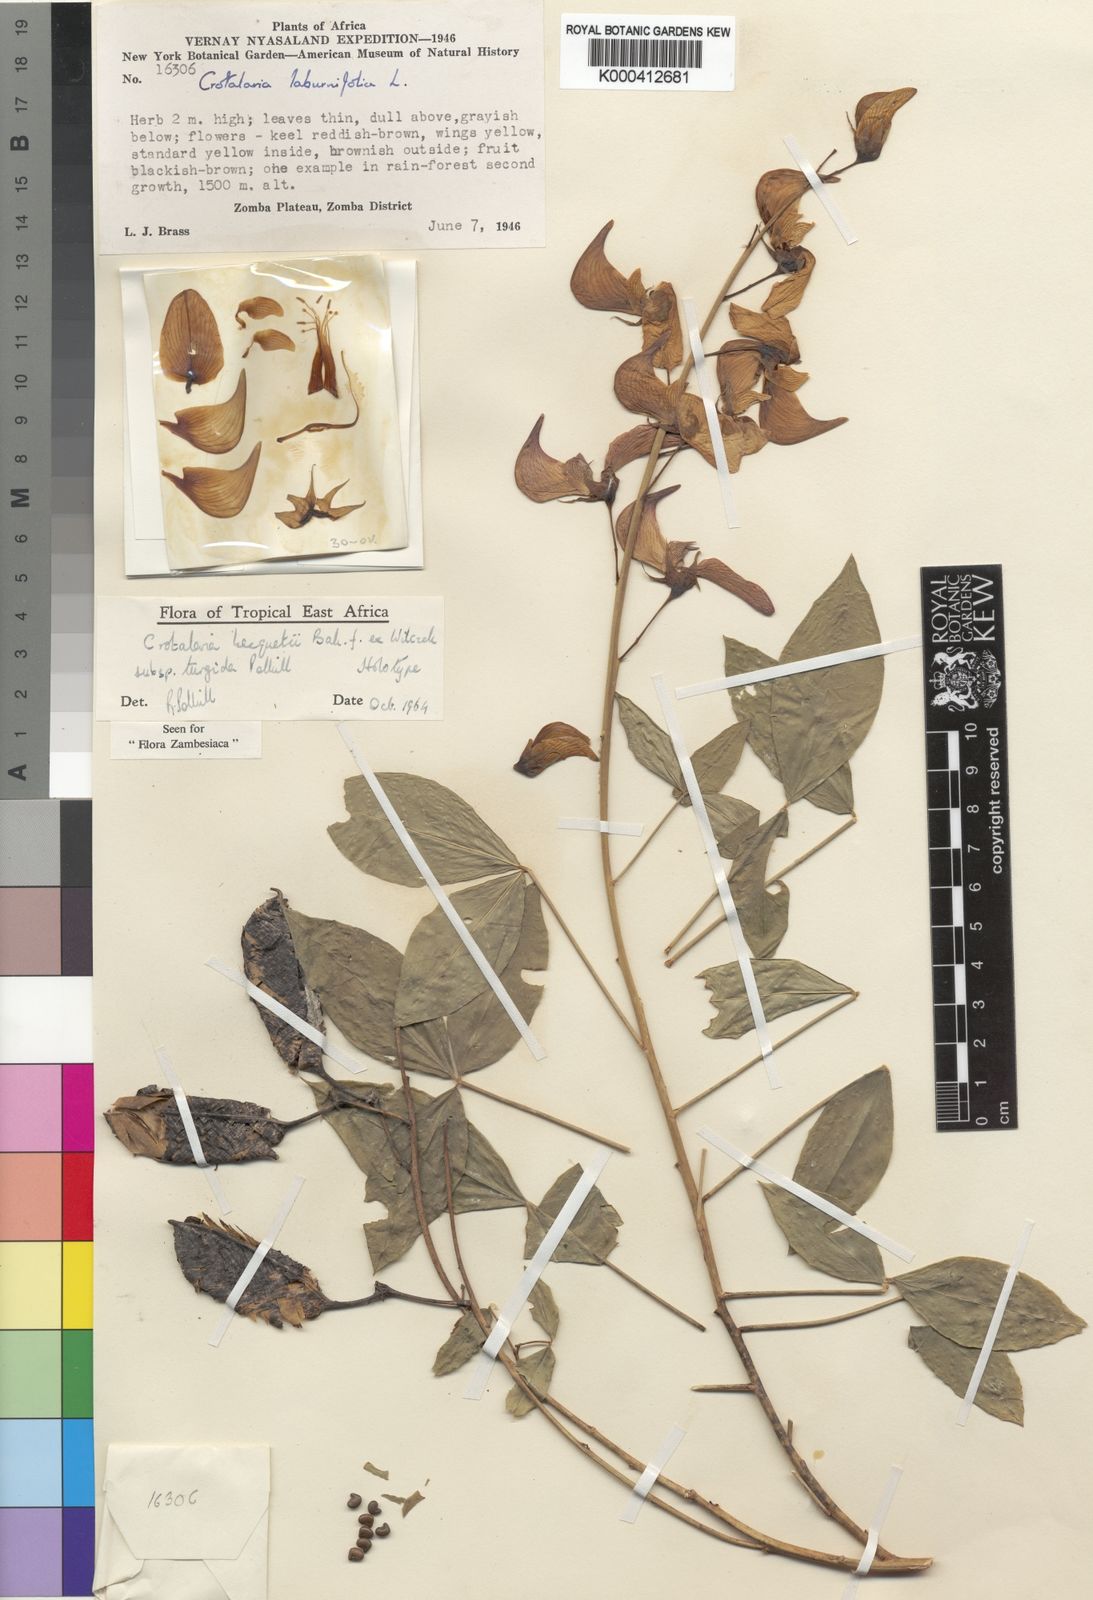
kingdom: Plantae
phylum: Tracheophyta
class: Magnoliopsida
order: Fabales
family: Fabaceae
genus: Crotalaria
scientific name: Crotalaria becquetii ex
